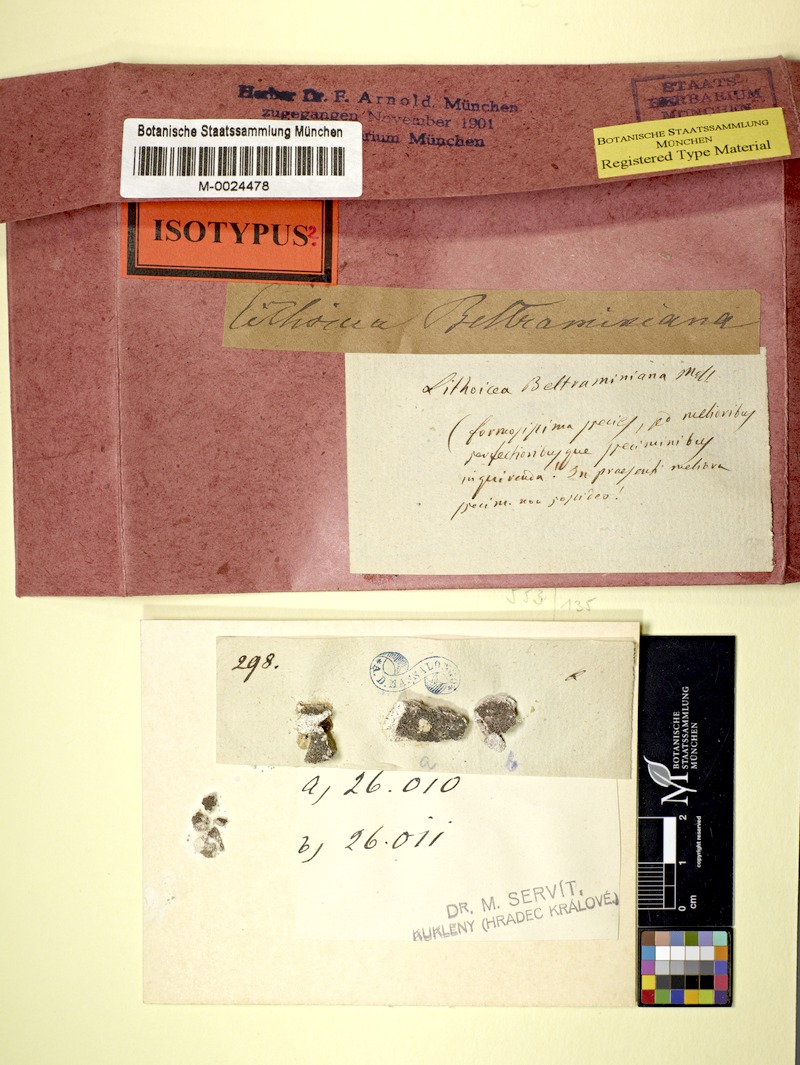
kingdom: Fungi
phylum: Ascomycota
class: Eurotiomycetes
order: Verrucariales
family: Verrucariaceae
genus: Verruculopsis
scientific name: Verruculopsis beltraminiana
